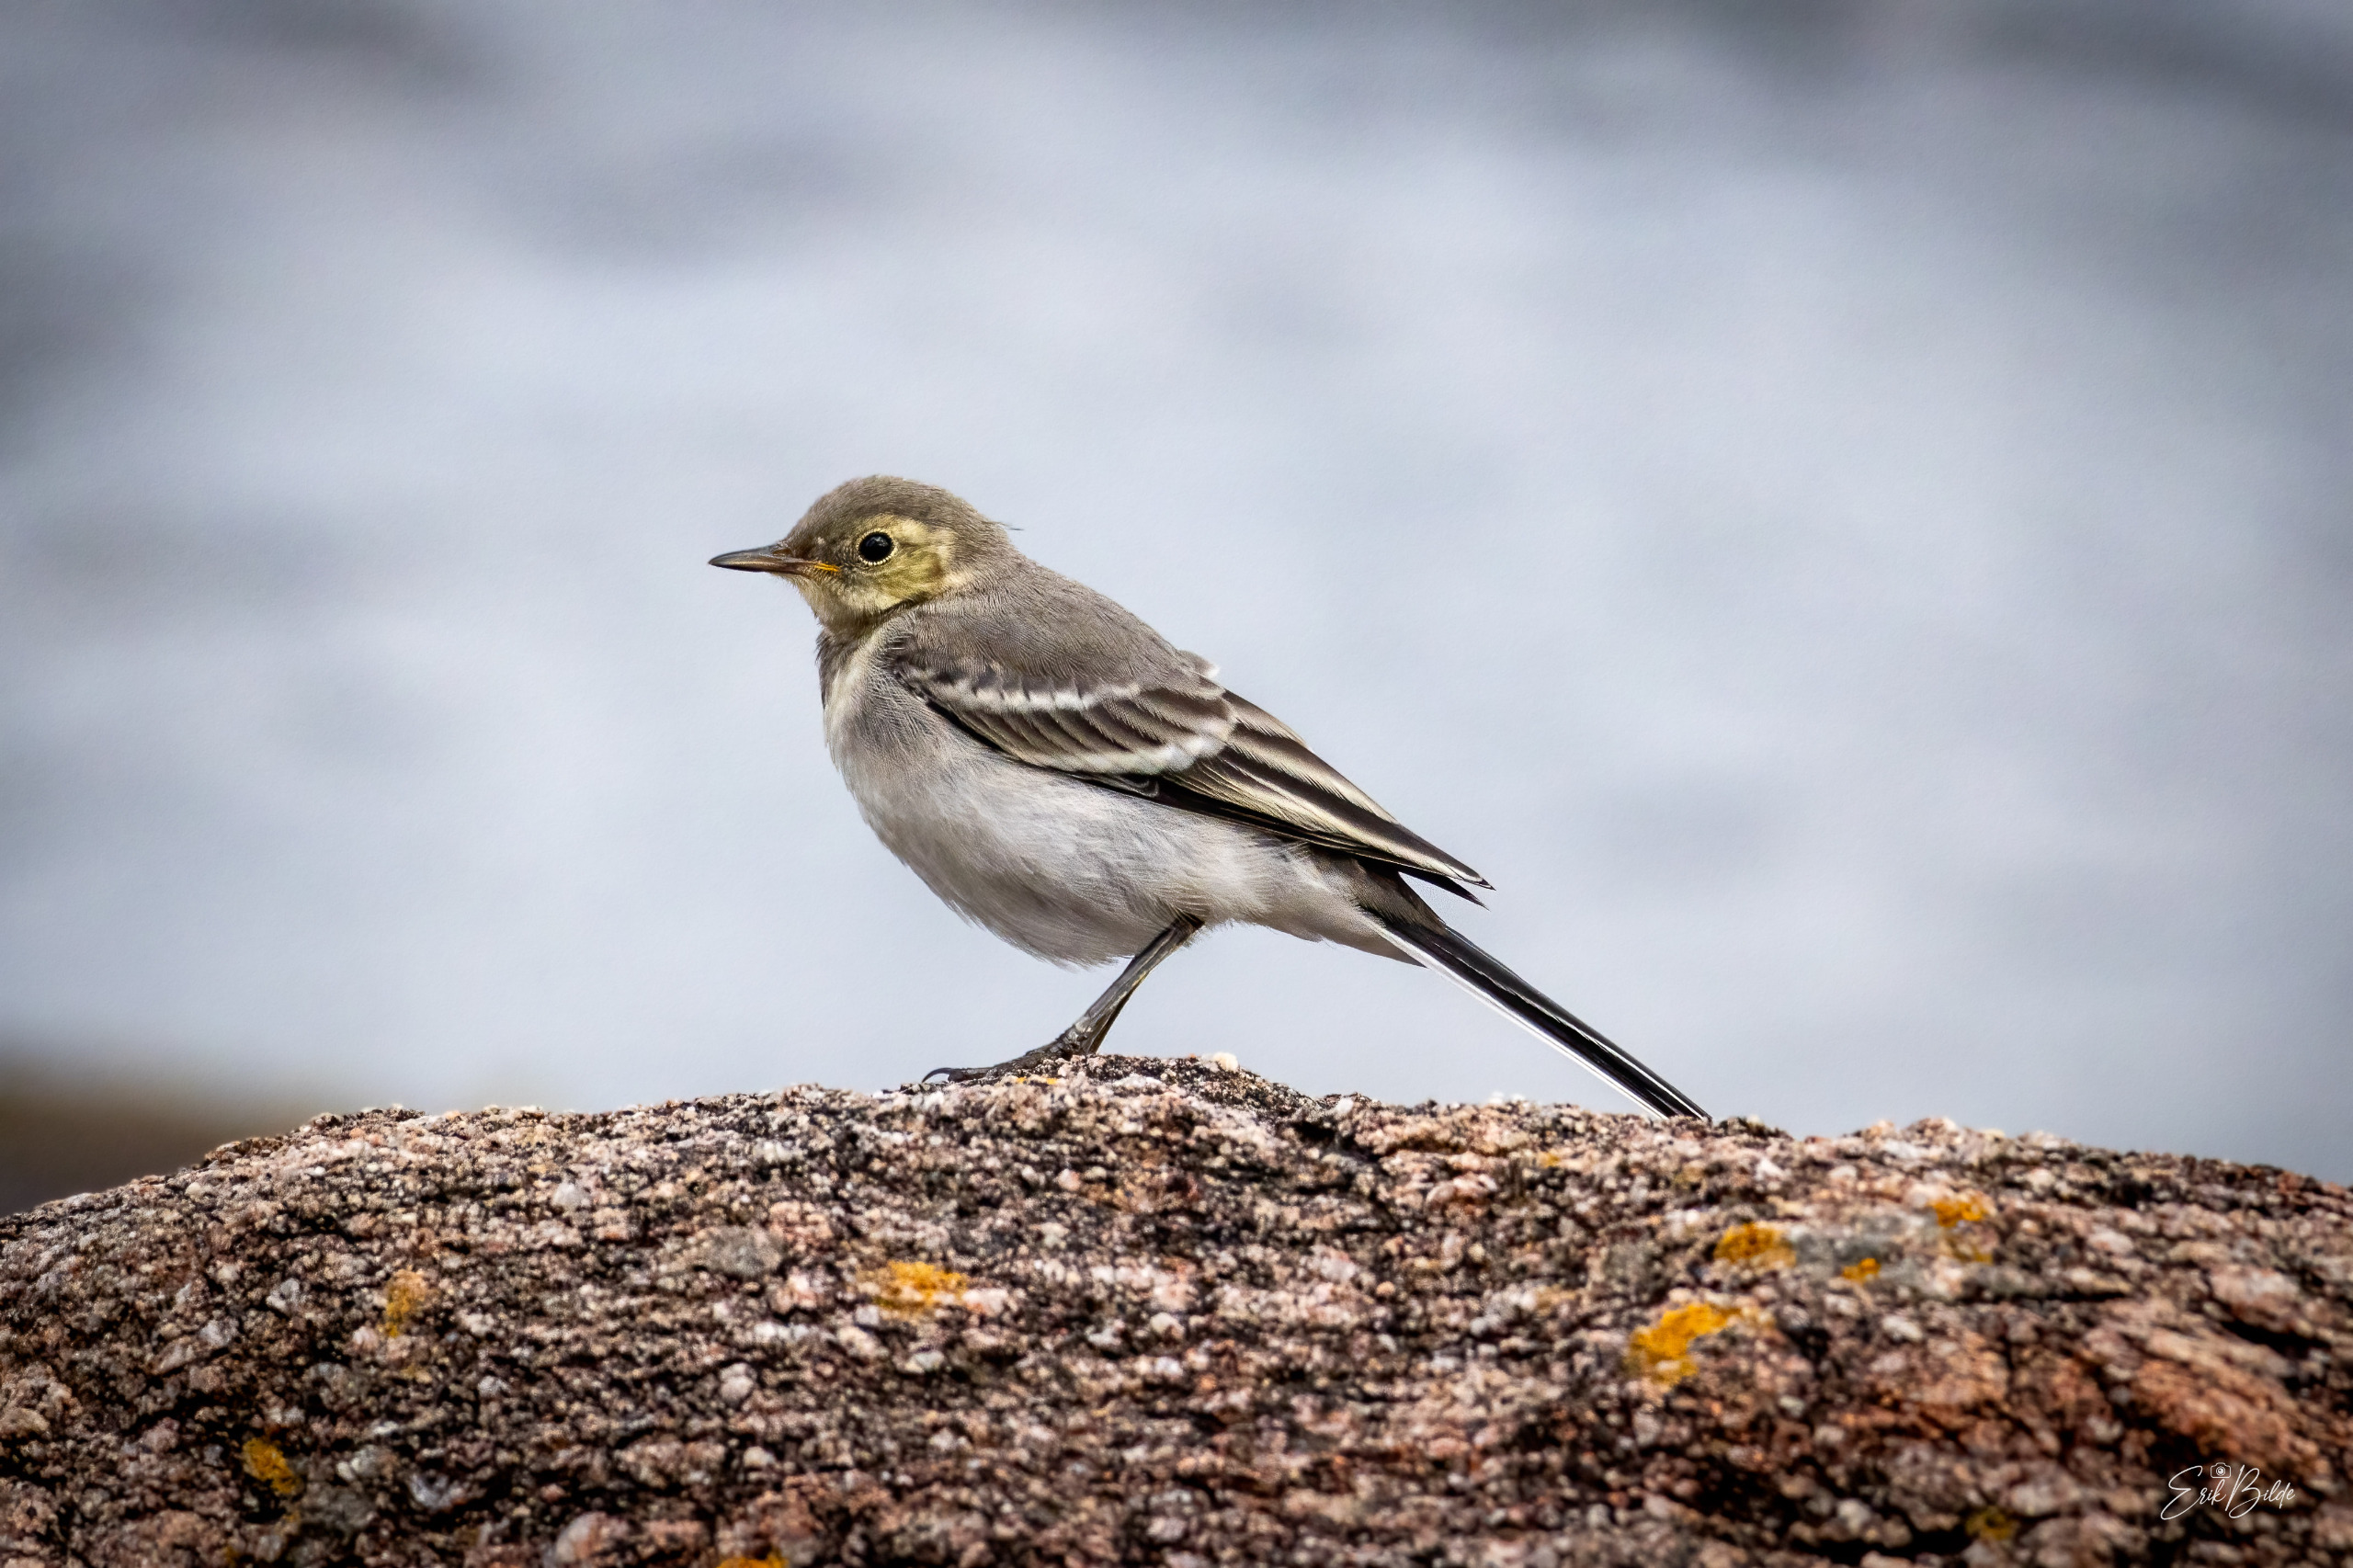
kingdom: Animalia
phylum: Chordata
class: Aves
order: Passeriformes
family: Motacillidae
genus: Motacilla
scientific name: Motacilla alba
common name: Hvid vipstjert
